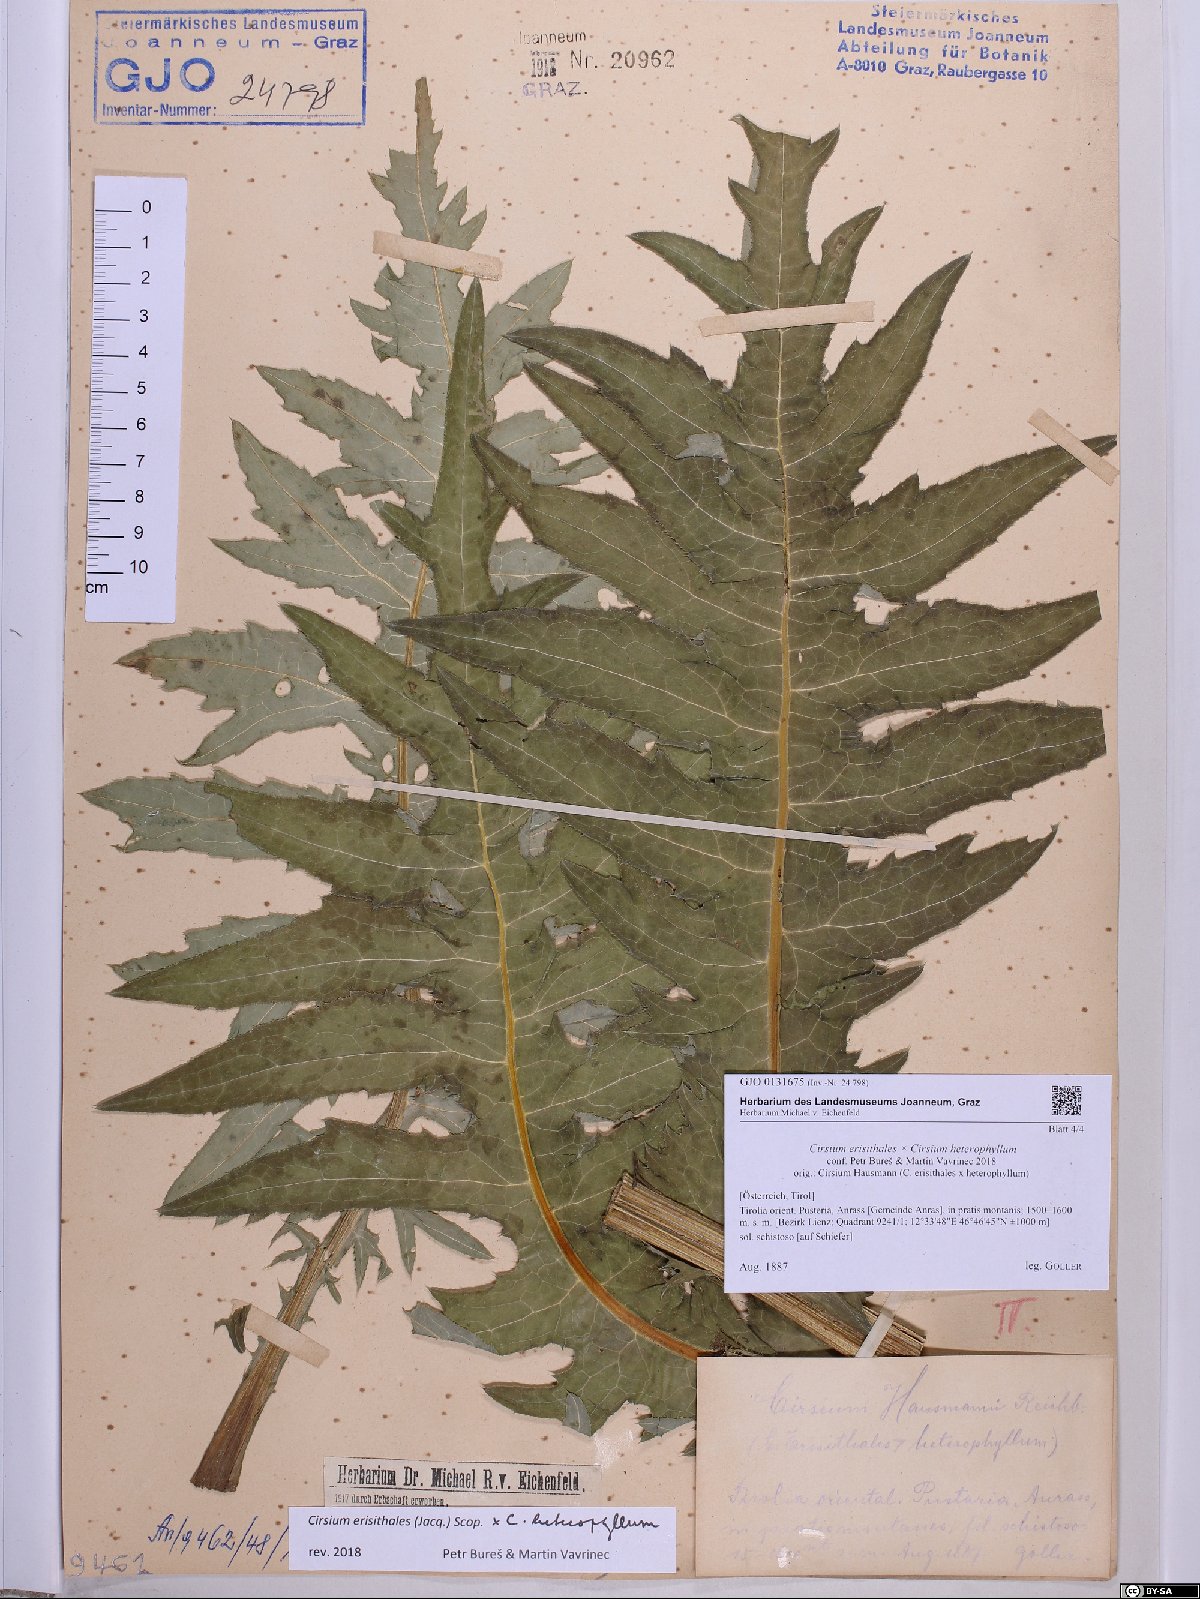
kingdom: Plantae
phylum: Tracheophyta
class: Magnoliopsida
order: Asterales
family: Asteraceae
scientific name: Asteraceae
